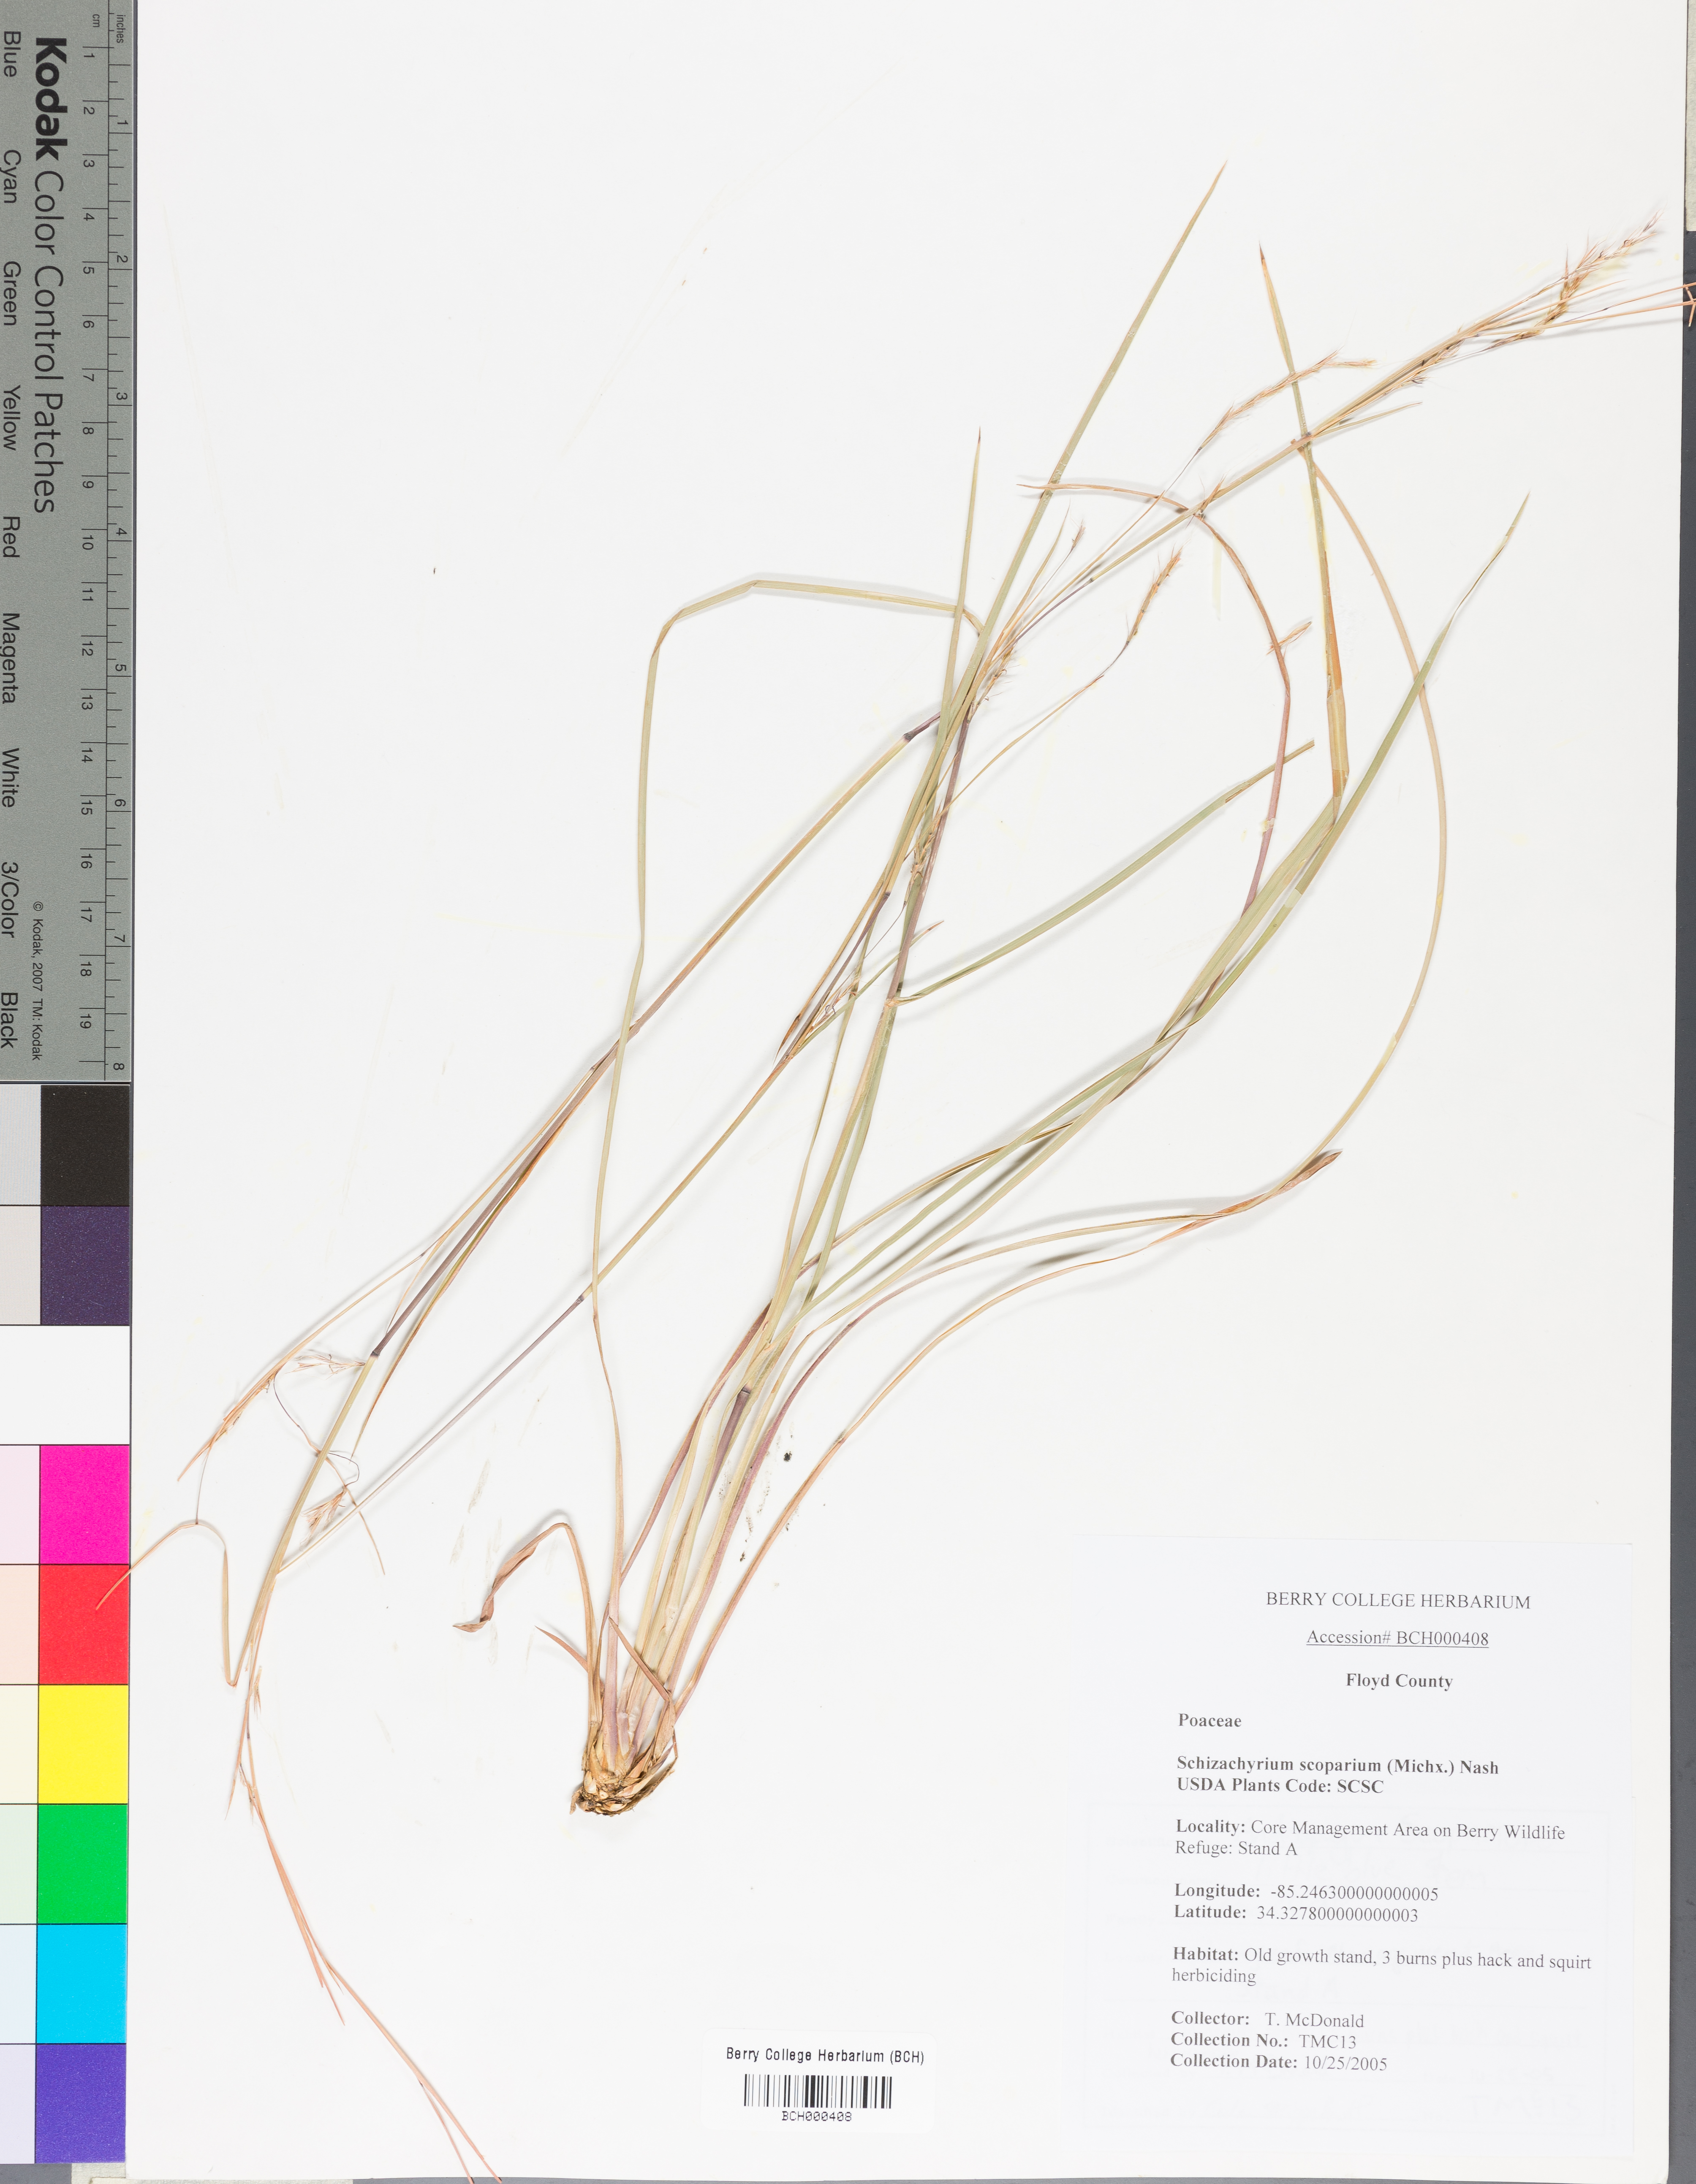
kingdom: Plantae
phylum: Tracheophyta
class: Liliopsida
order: Poales
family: Poaceae
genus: Schizachyrium
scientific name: Schizachyrium scoparium
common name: Little bluestem
